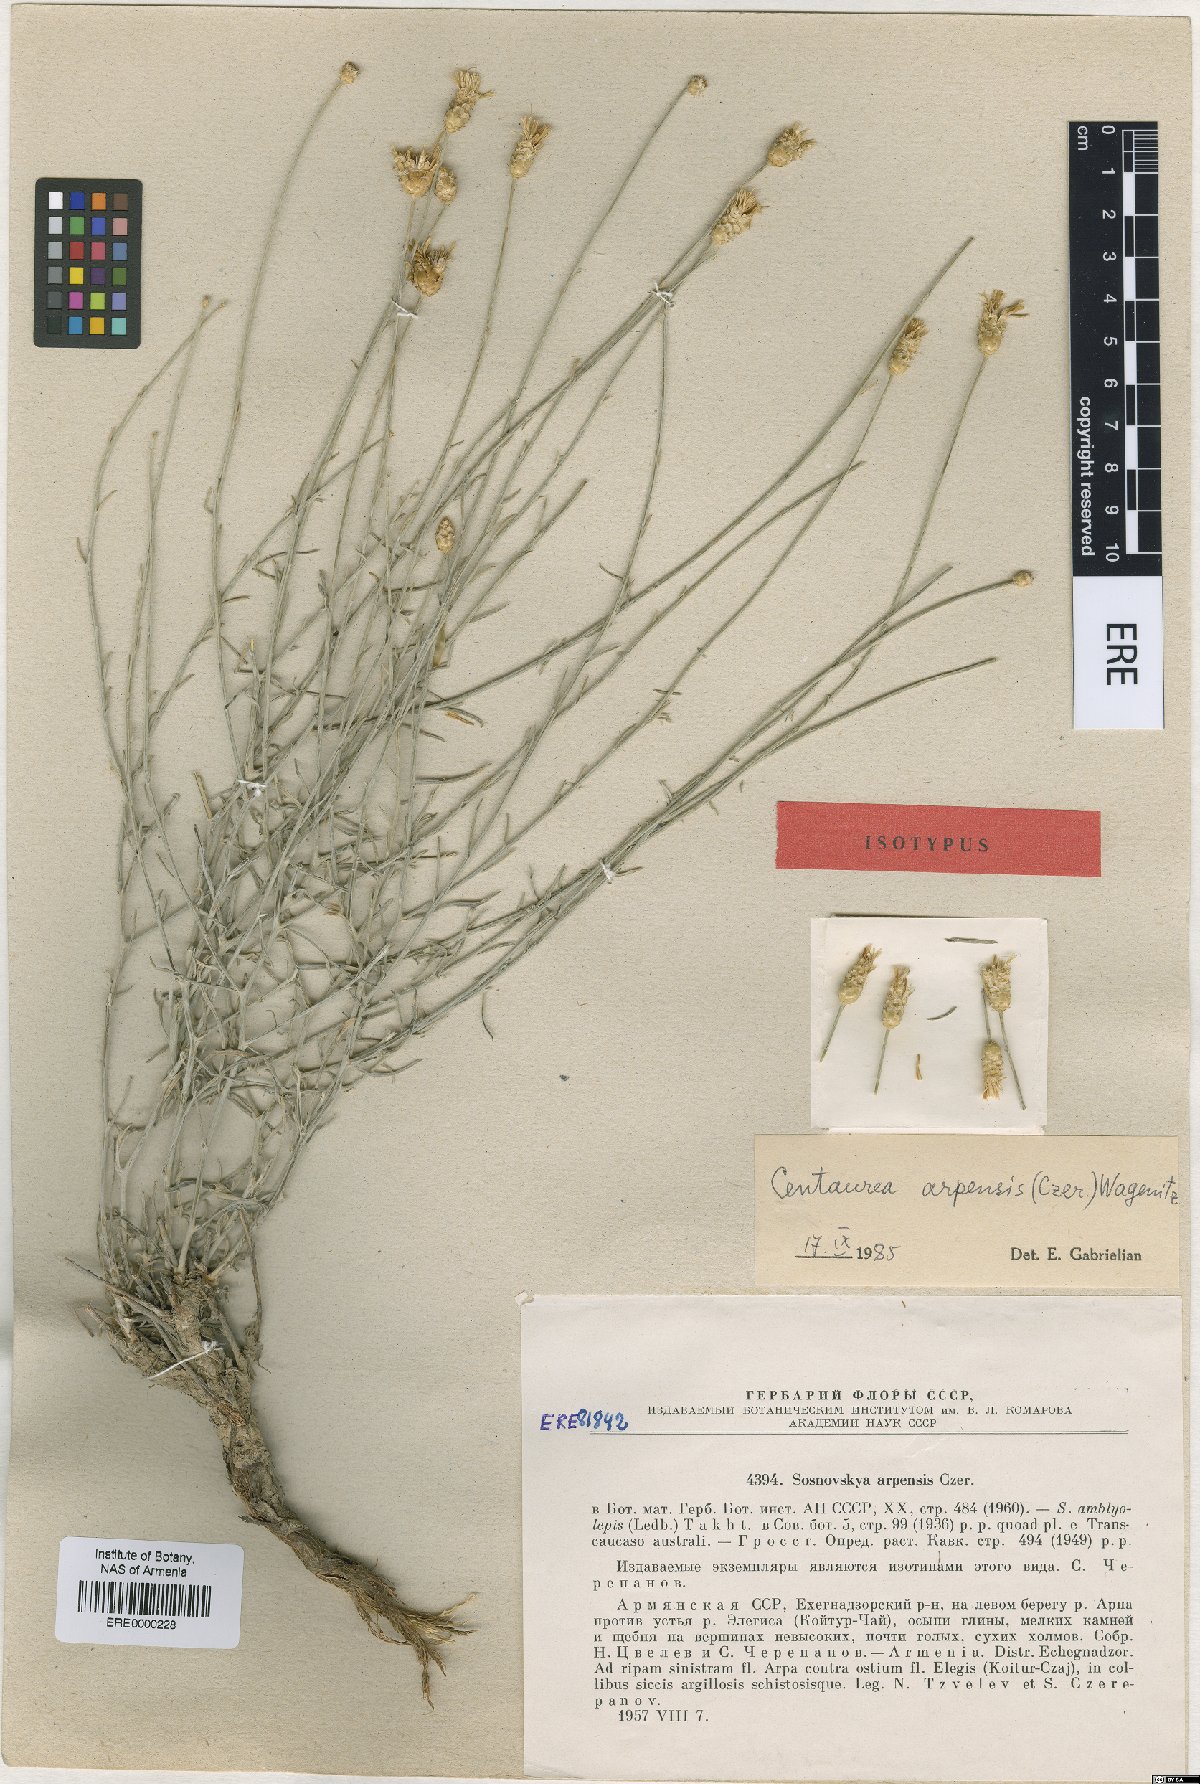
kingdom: Plantae
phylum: Tracheophyta
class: Magnoliopsida
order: Asterales
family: Asteraceae
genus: Psephellus
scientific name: Psephellus arpensis
